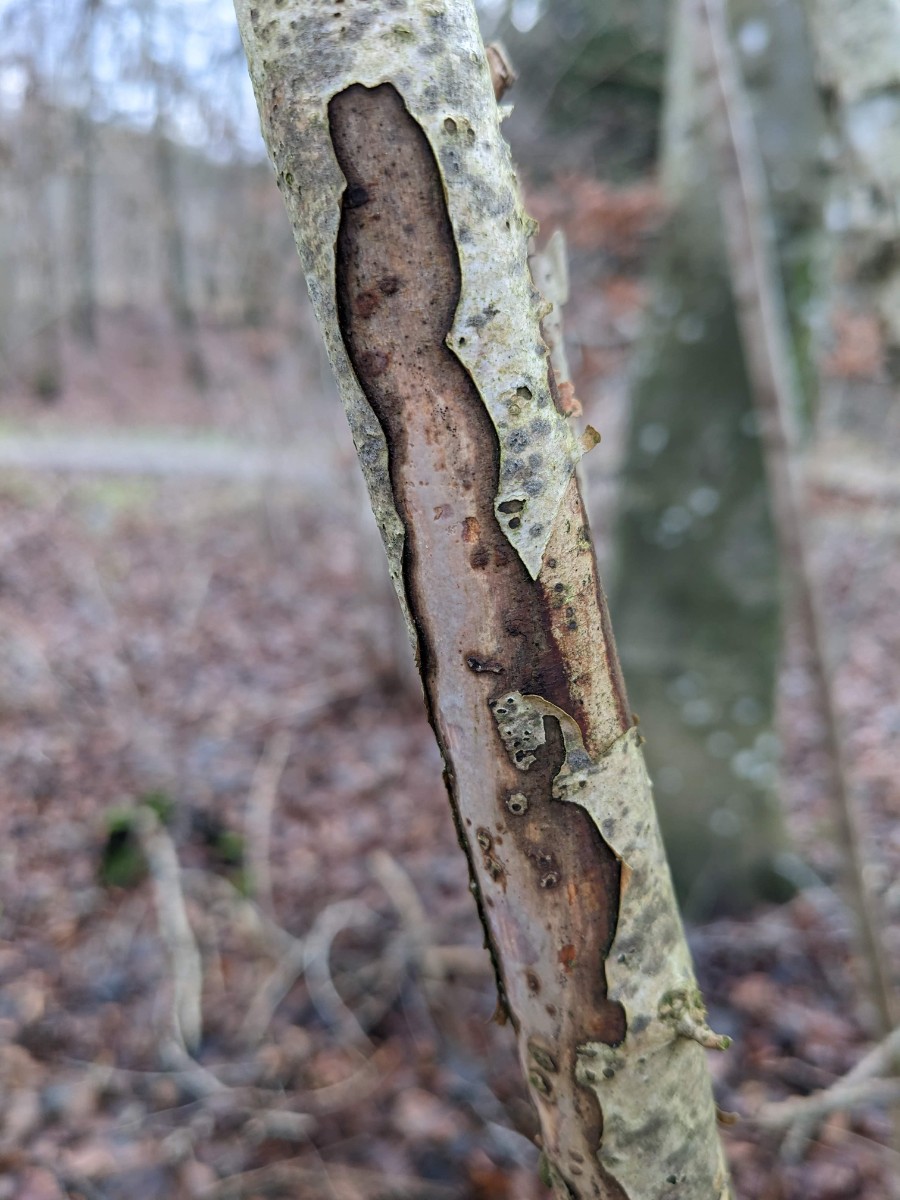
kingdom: Fungi
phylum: Basidiomycota
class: Agaricomycetes
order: Corticiales
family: Vuilleminiaceae
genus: Vuilleminia
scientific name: Vuilleminia coryli
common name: hassel-barksprænger
